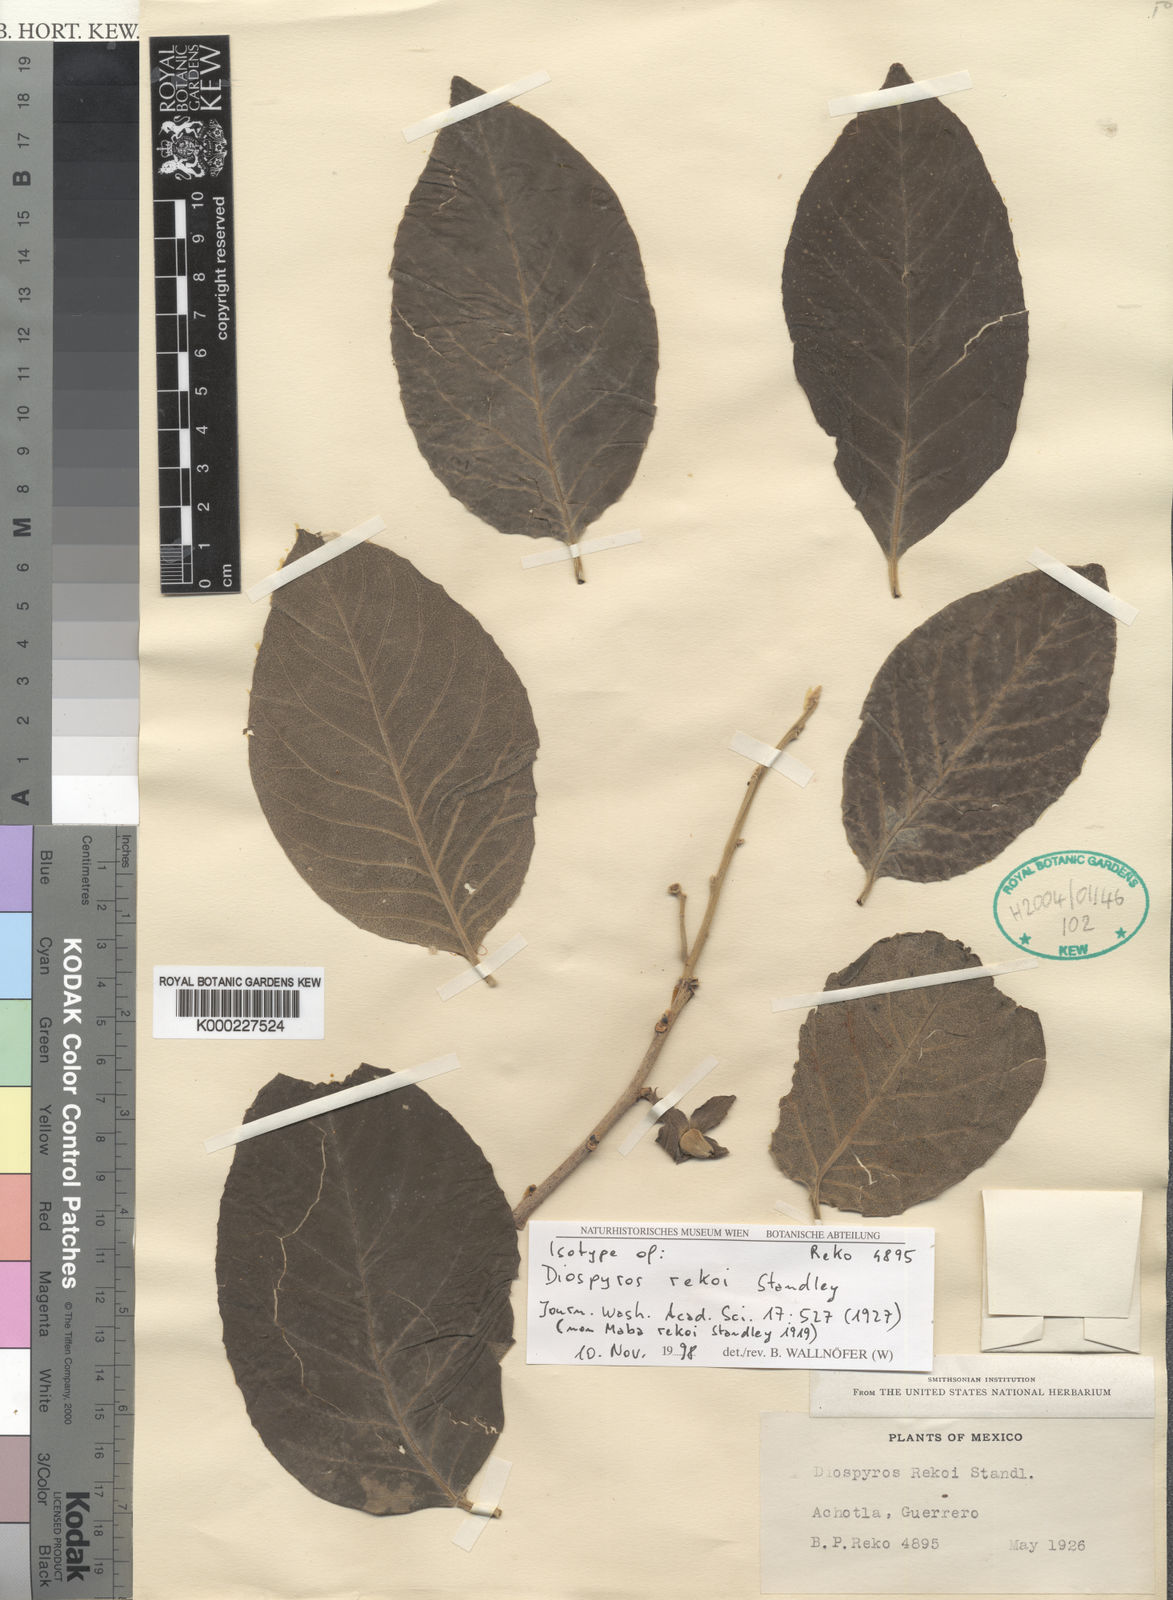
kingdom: Plantae
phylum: Tracheophyta
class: Magnoliopsida
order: Ericales
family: Ebenaceae
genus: Diospyros
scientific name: Diospyros rekoi
